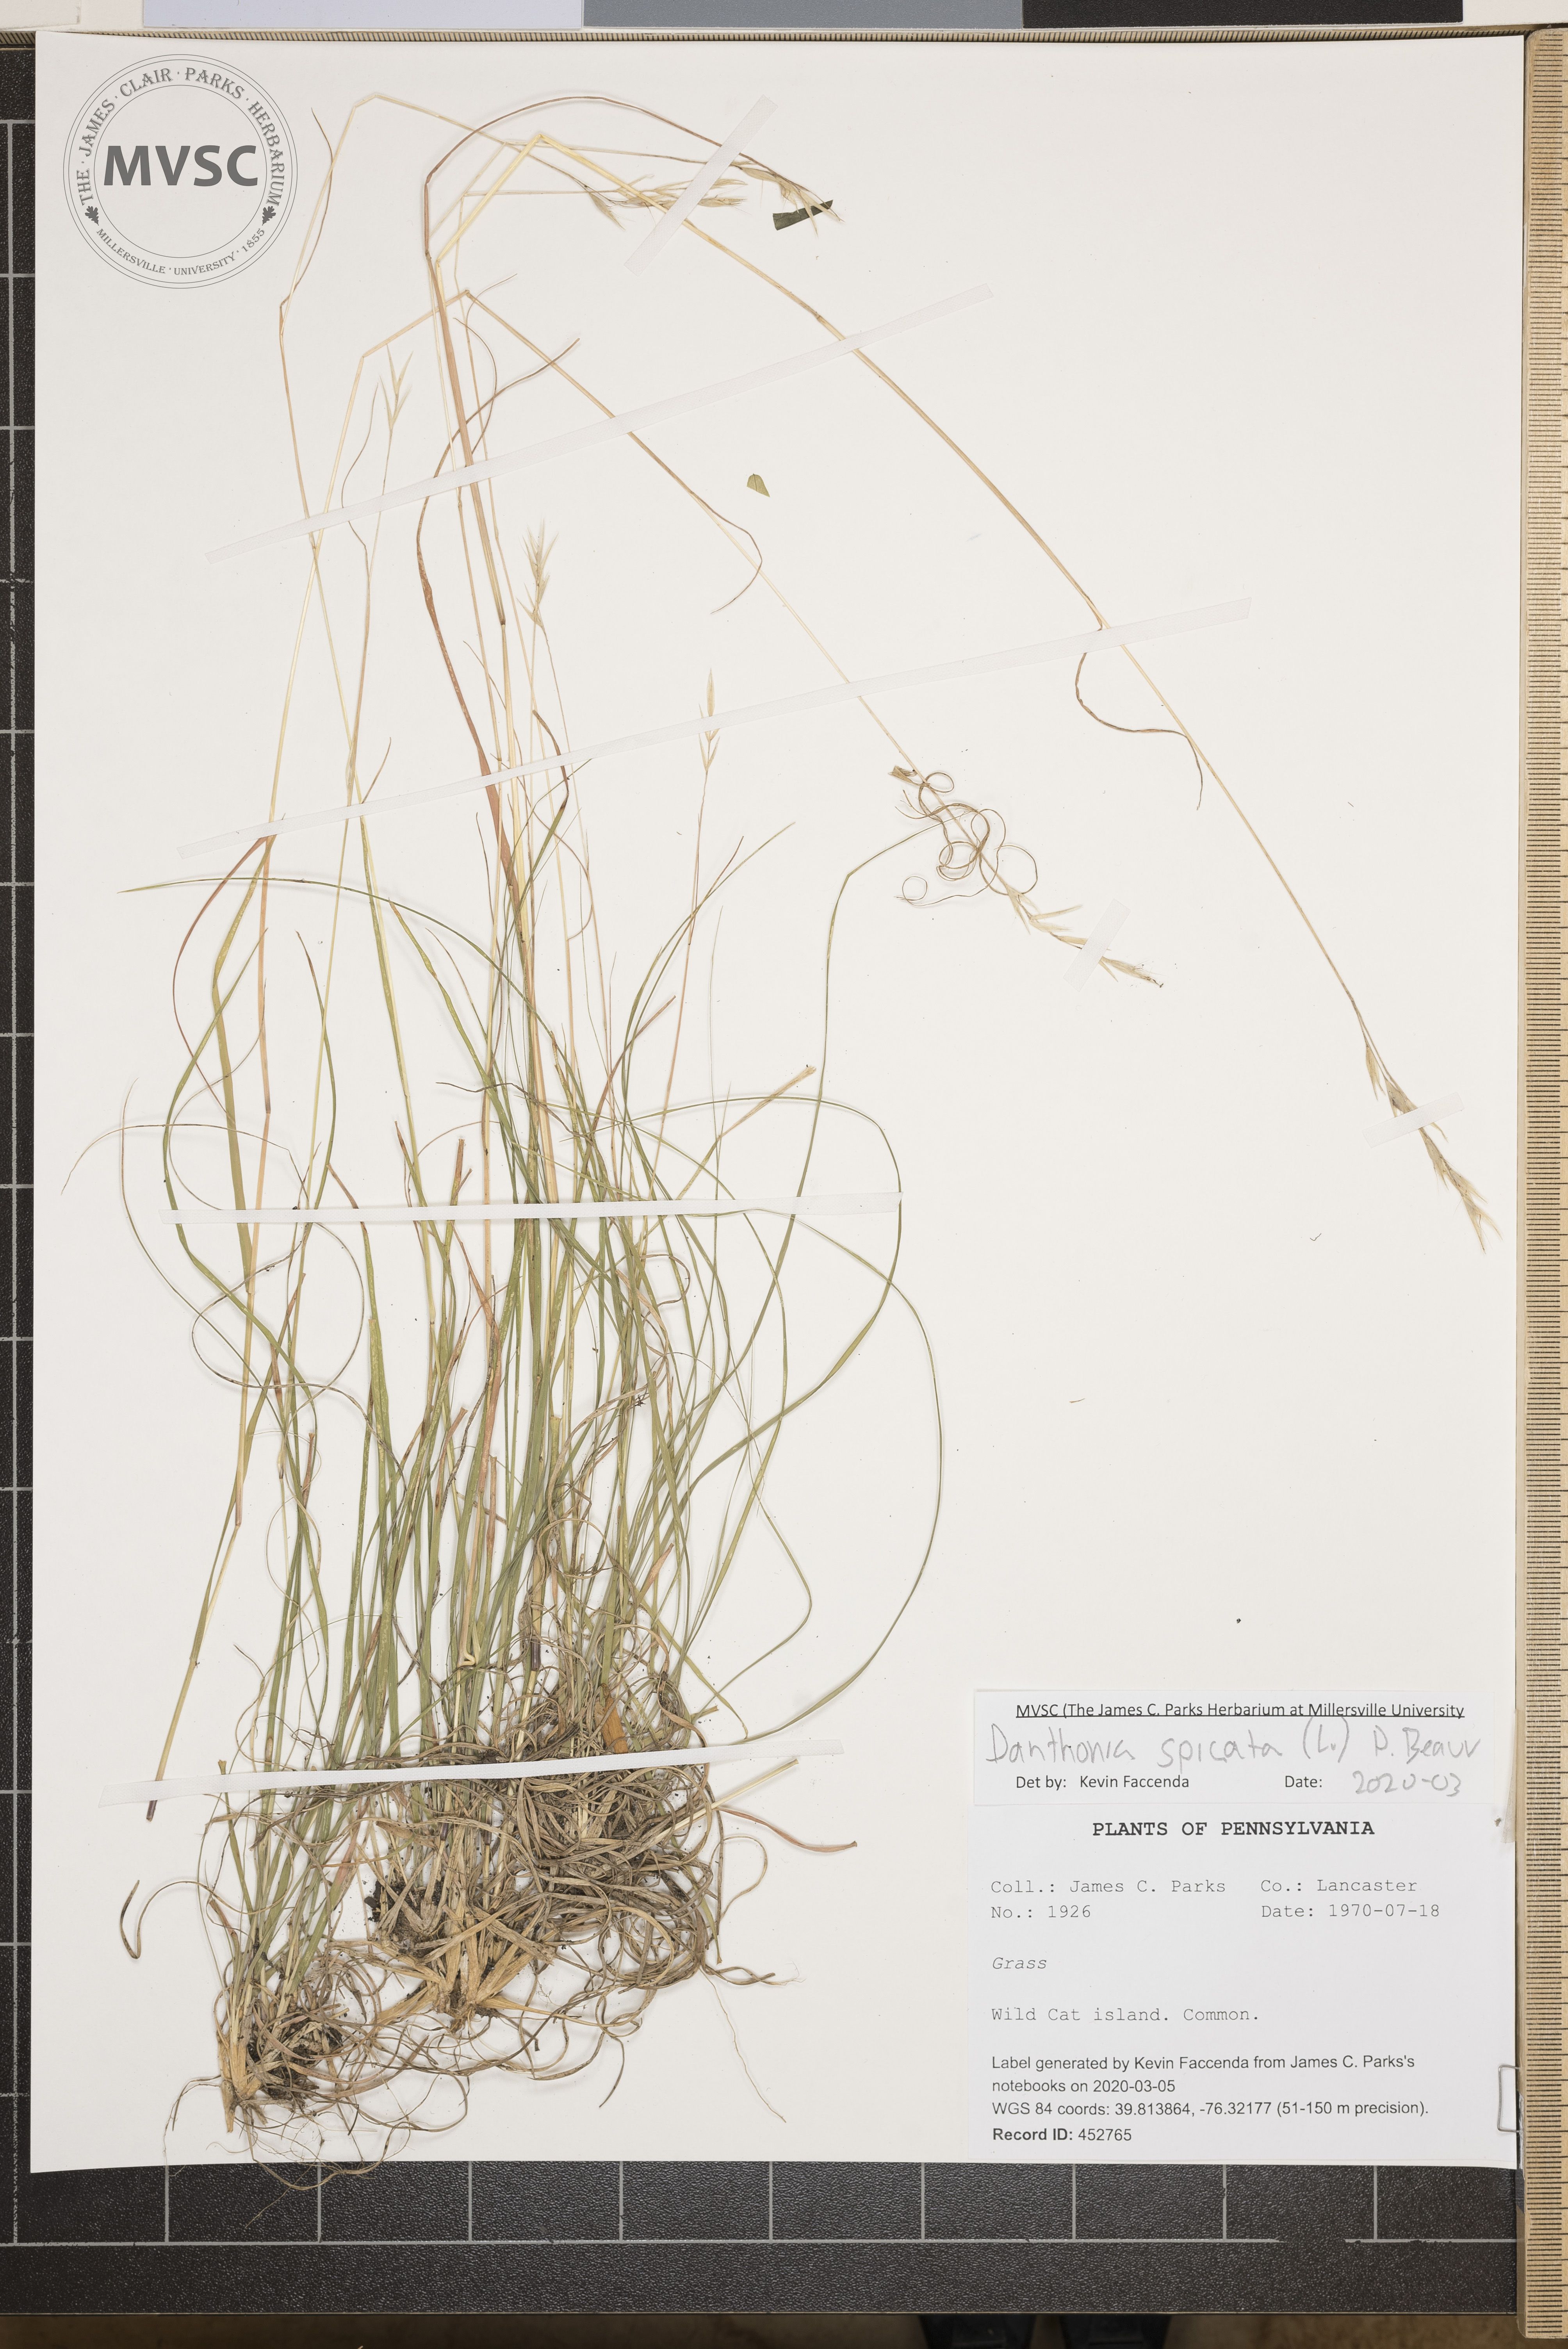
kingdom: Plantae
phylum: Tracheophyta
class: Liliopsida
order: Poales
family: Poaceae
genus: Danthonia
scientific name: Danthonia spicata
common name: Common wild oatgrass
